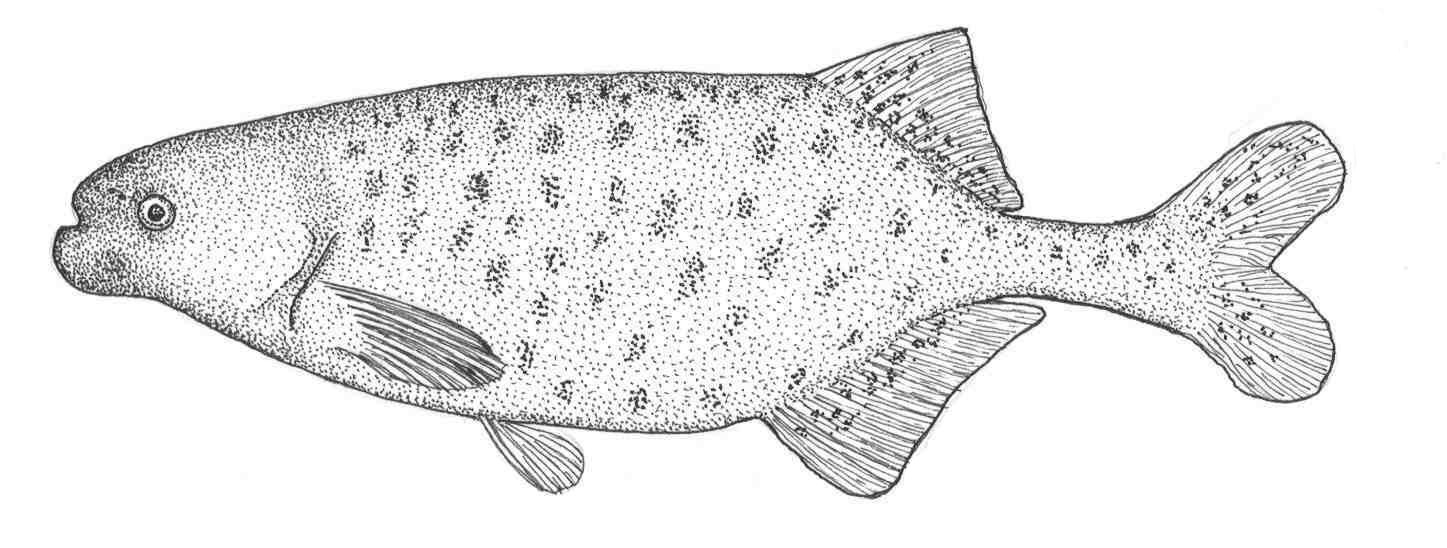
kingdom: Animalia
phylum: Chordata
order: Osteoglossiformes
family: Mormyridae
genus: Marcusenius
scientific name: Marcusenius macrolepidotus
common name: Bulldog
